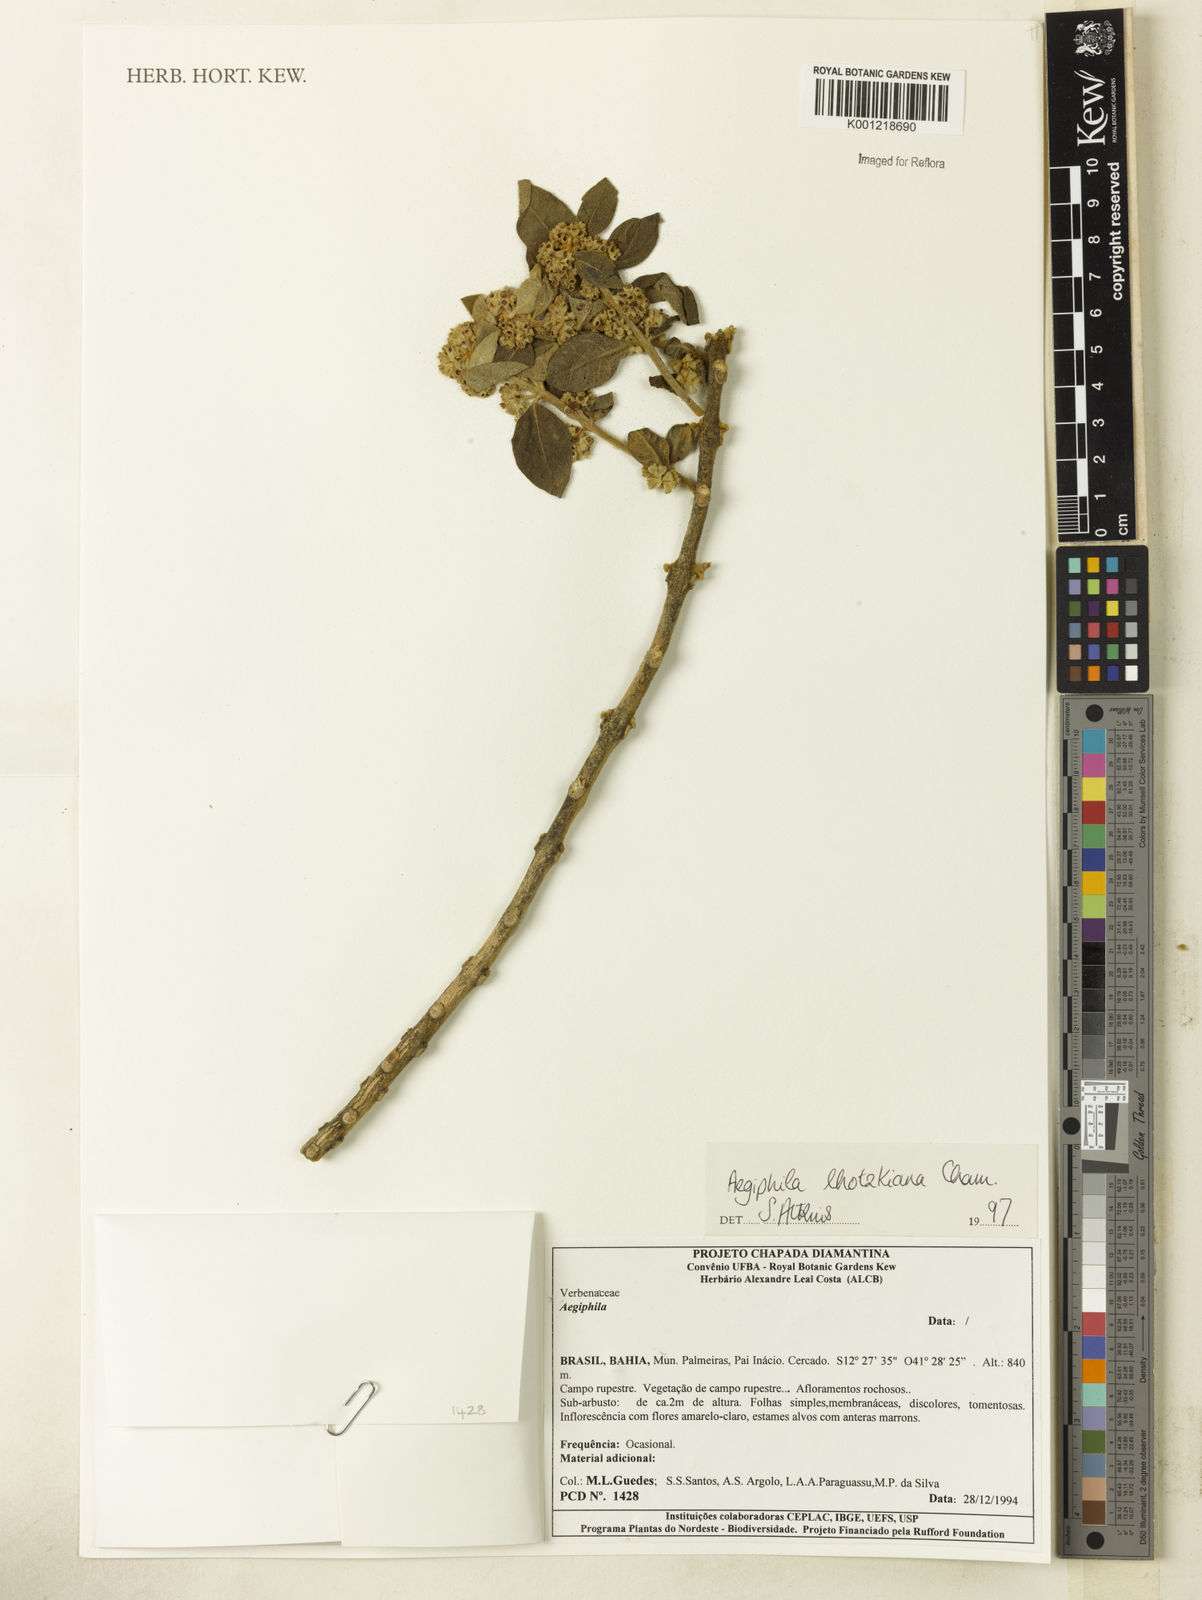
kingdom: Plantae
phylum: Tracheophyta
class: Magnoliopsida
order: Lamiales
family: Lamiaceae
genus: Aegiphila
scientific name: Aegiphila verticillata
